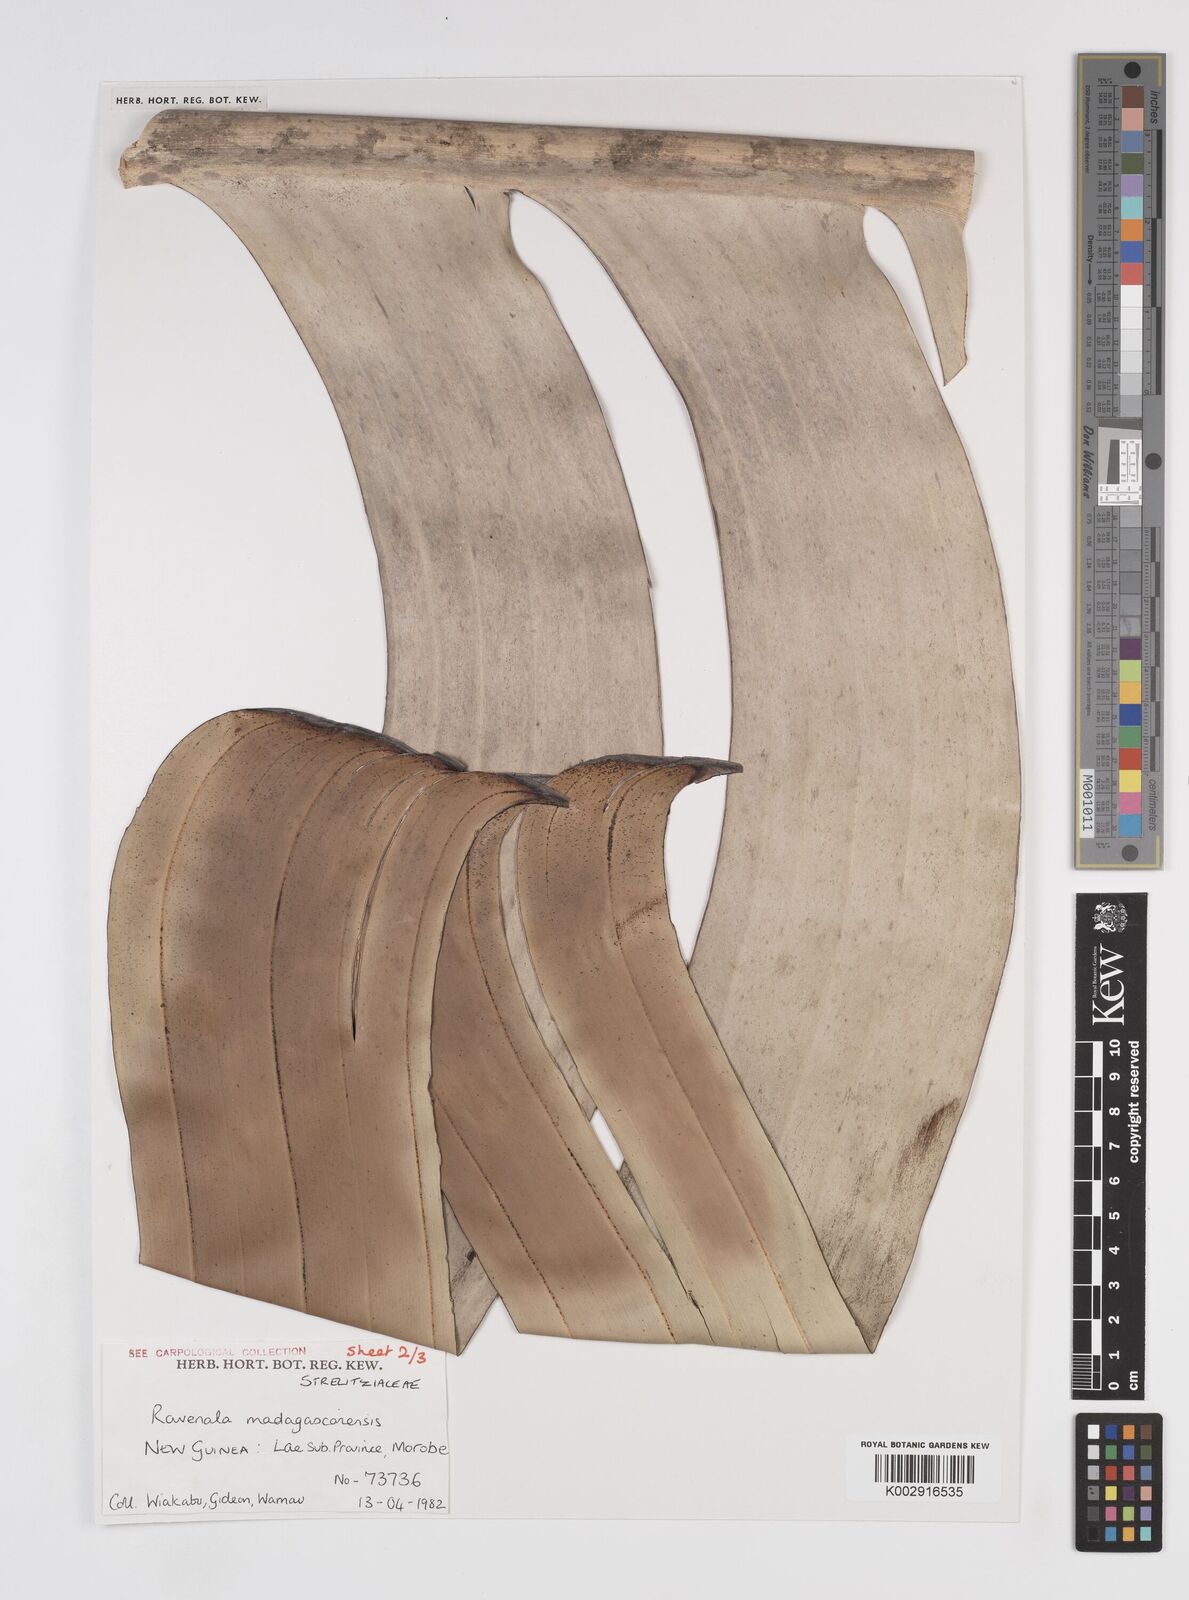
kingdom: Plantae
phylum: Tracheophyta
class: Liliopsida
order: Zingiberales
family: Strelitziaceae
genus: Ravenala
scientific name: Ravenala madagascariensis
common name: Traveler's-palm
